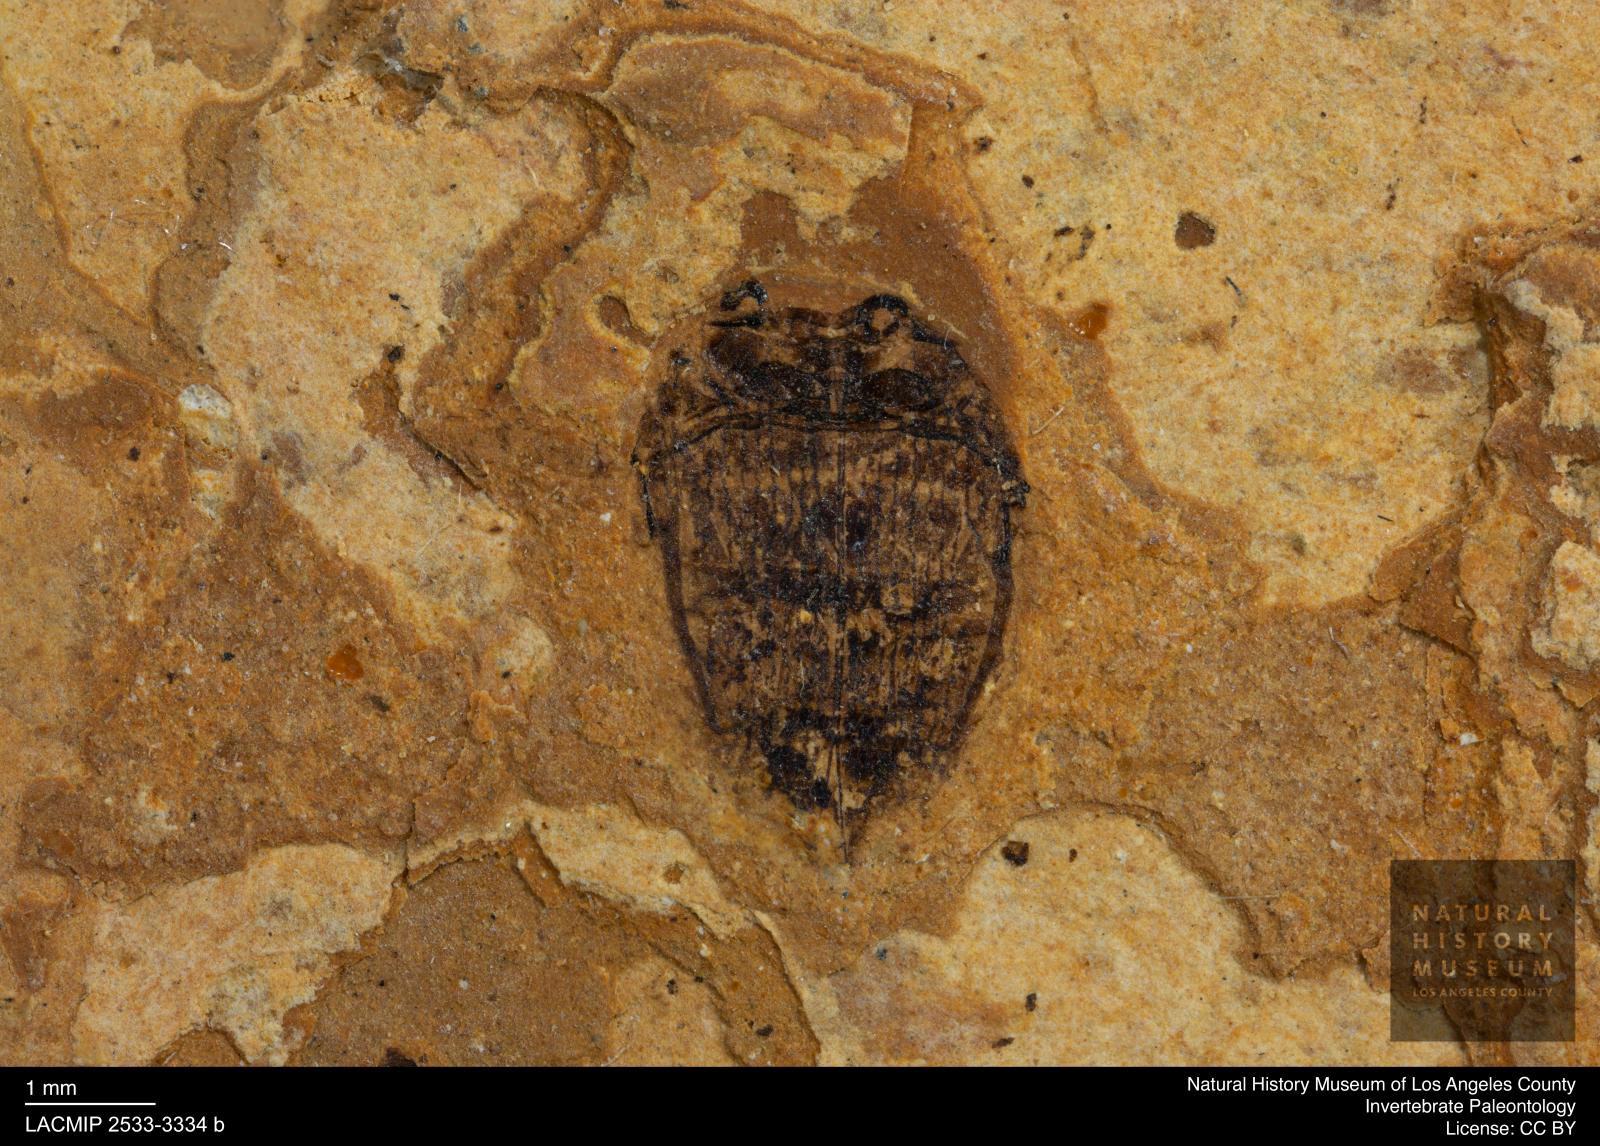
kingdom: Animalia
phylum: Arthropoda
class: Insecta
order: Coleoptera
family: Dytiscidae
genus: Laccophilus
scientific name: Laccophilus Palaeogyrinus strigatus
